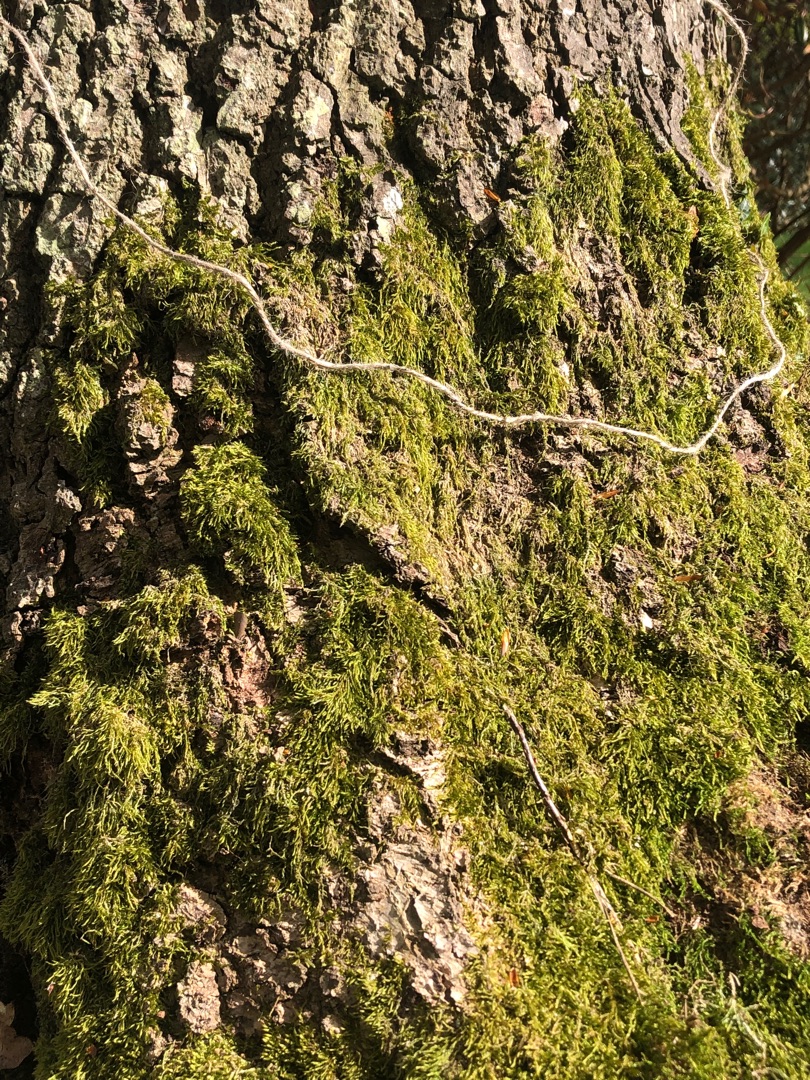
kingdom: Plantae
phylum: Bryophyta
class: Bryopsida
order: Hypnales
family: Hypnaceae
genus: Hypnum
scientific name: Hypnum cupressiforme
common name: Almindelig cypresmos
